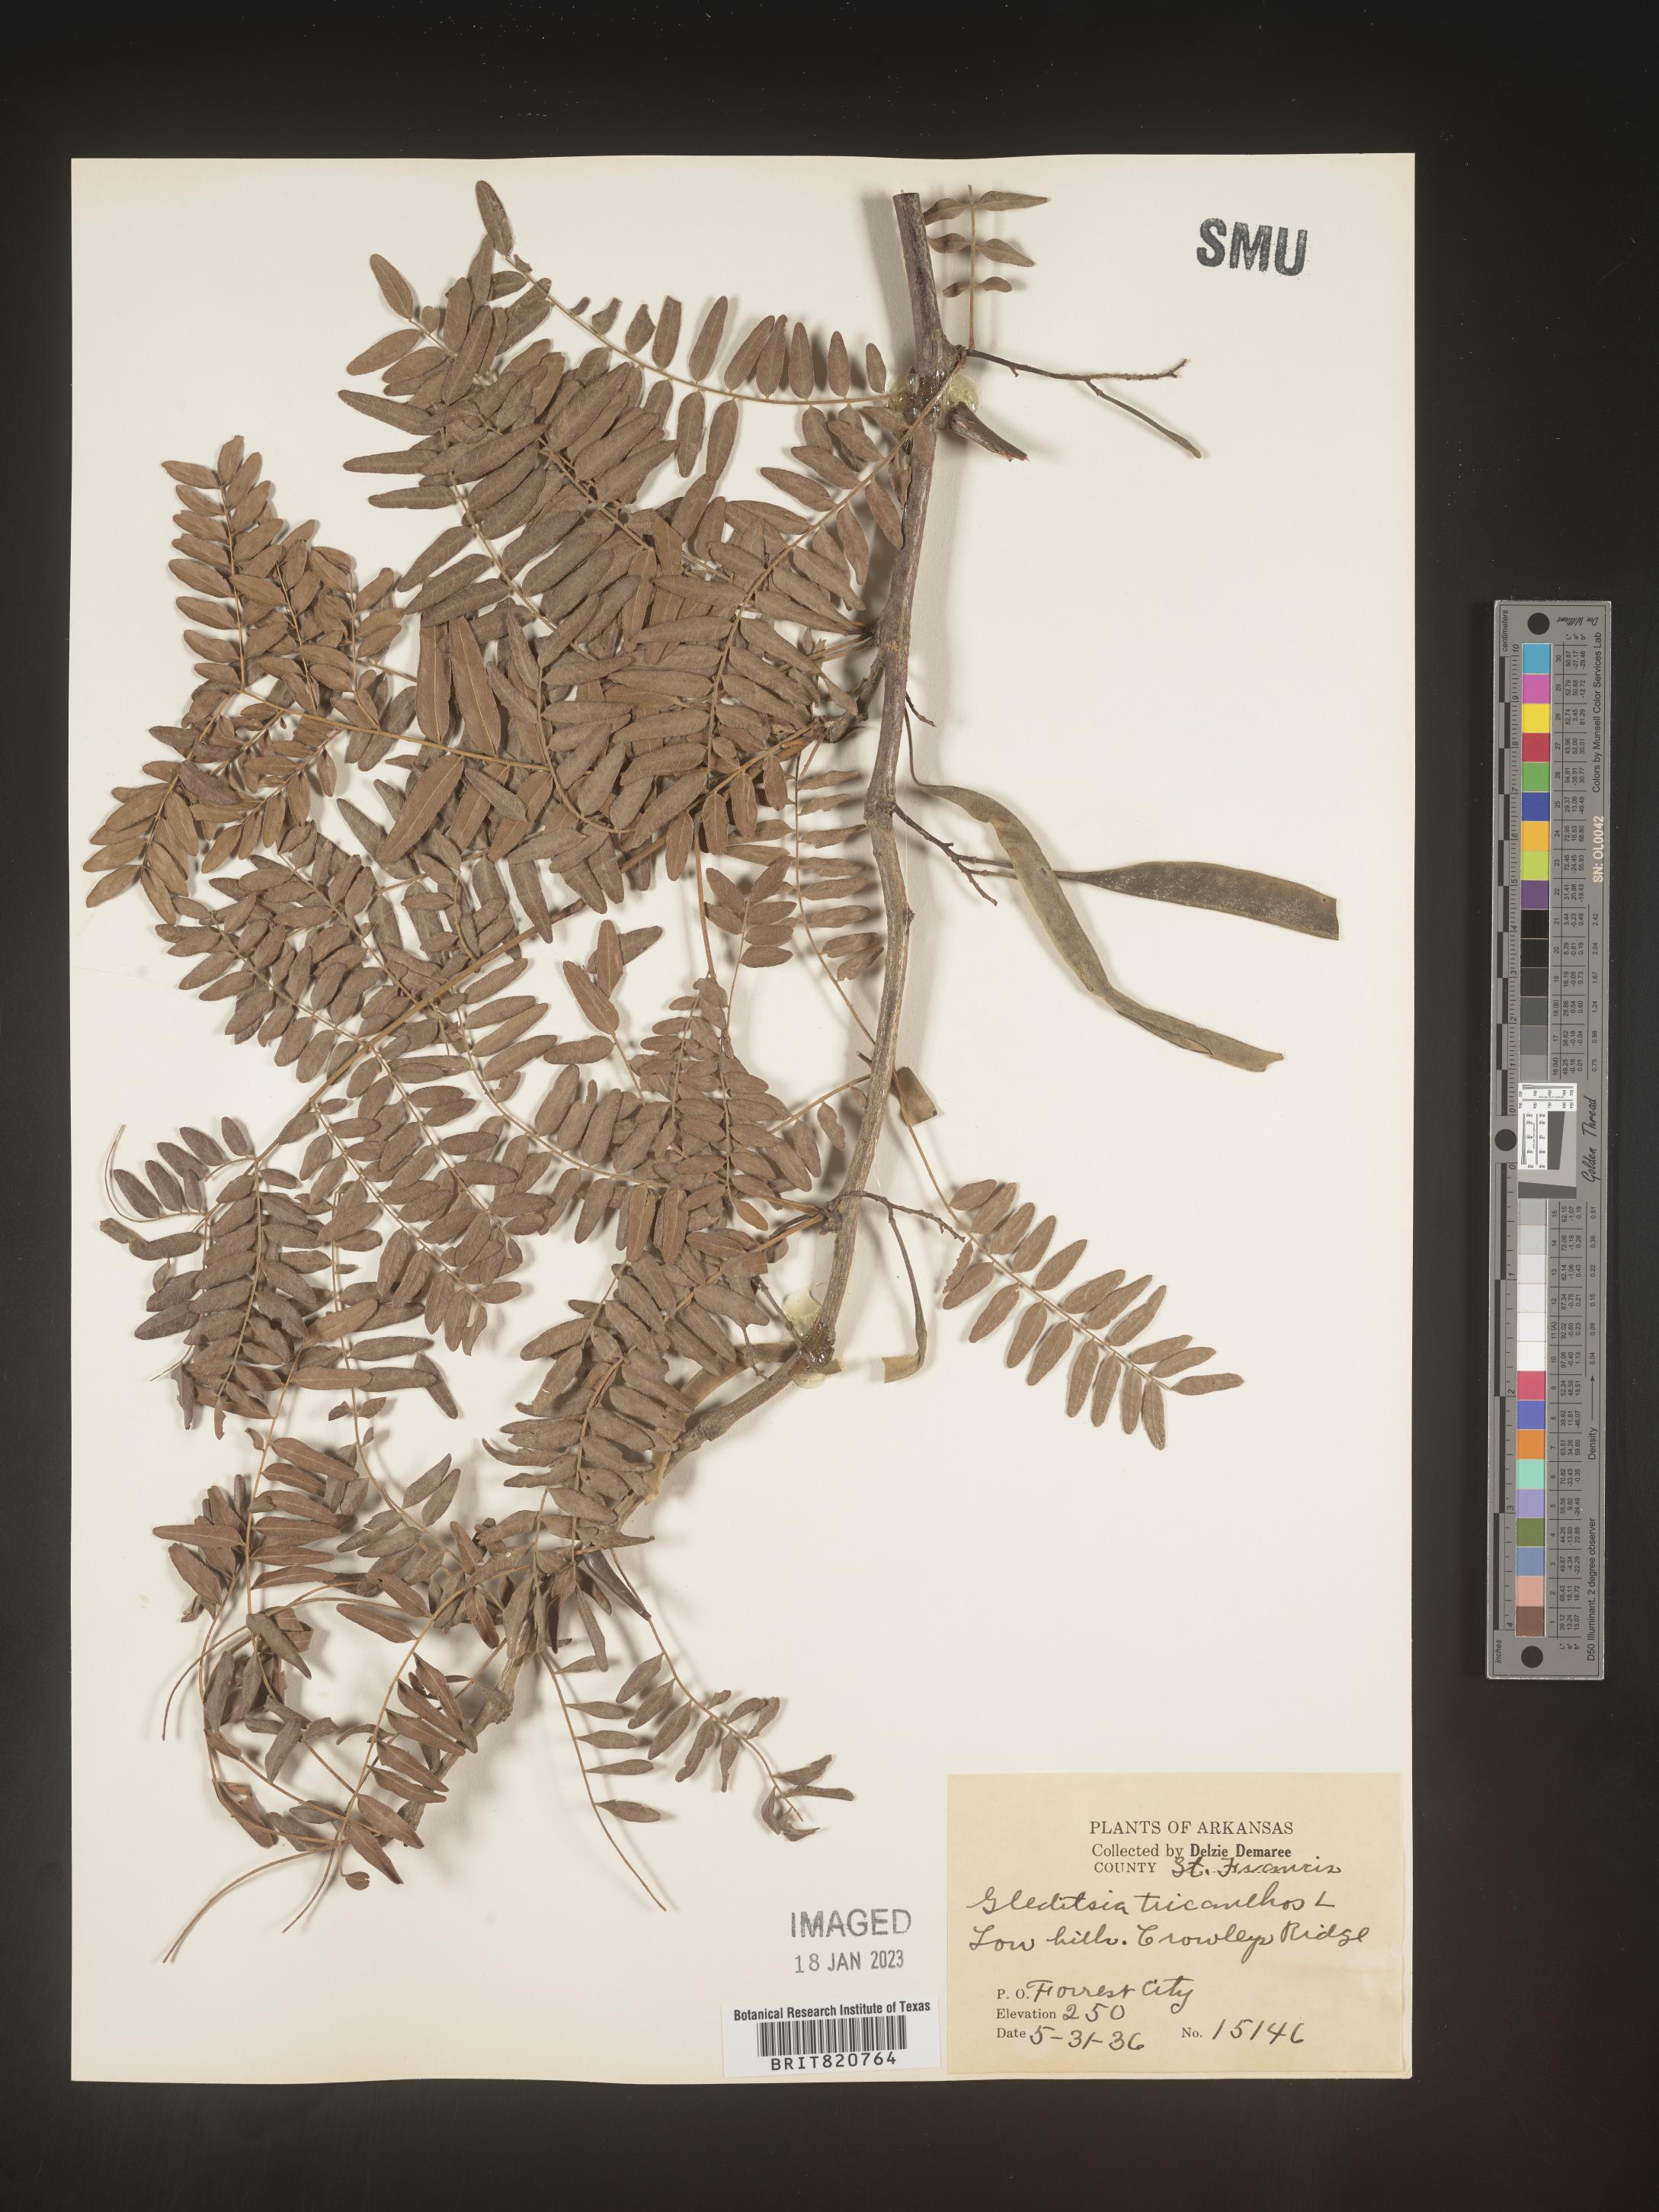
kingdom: Plantae
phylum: Tracheophyta
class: Magnoliopsida
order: Fabales
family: Fabaceae
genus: Gleditsia
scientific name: Gleditsia triacanthos
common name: Common honeylocust
